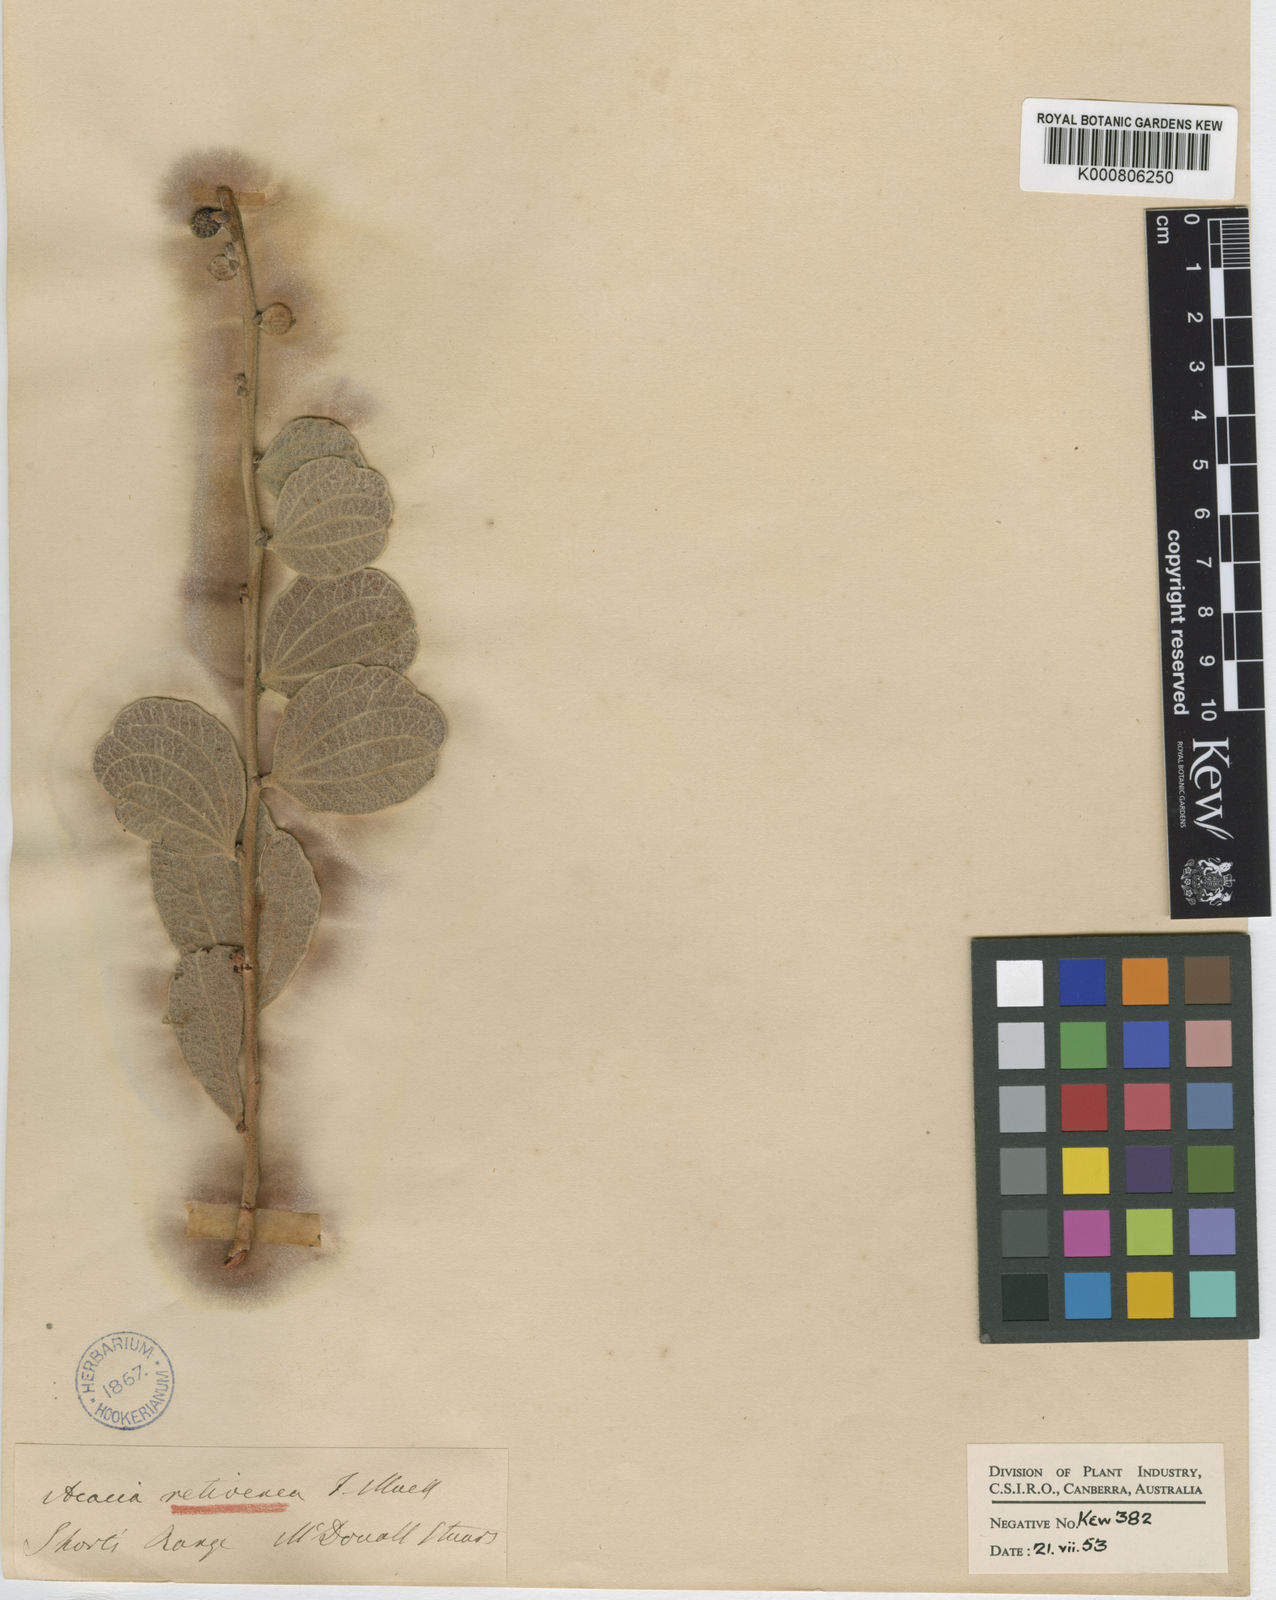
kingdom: Plantae
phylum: Tracheophyta
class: Magnoliopsida
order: Fabales
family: Fabaceae
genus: Acacia
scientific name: Acacia retivenea
